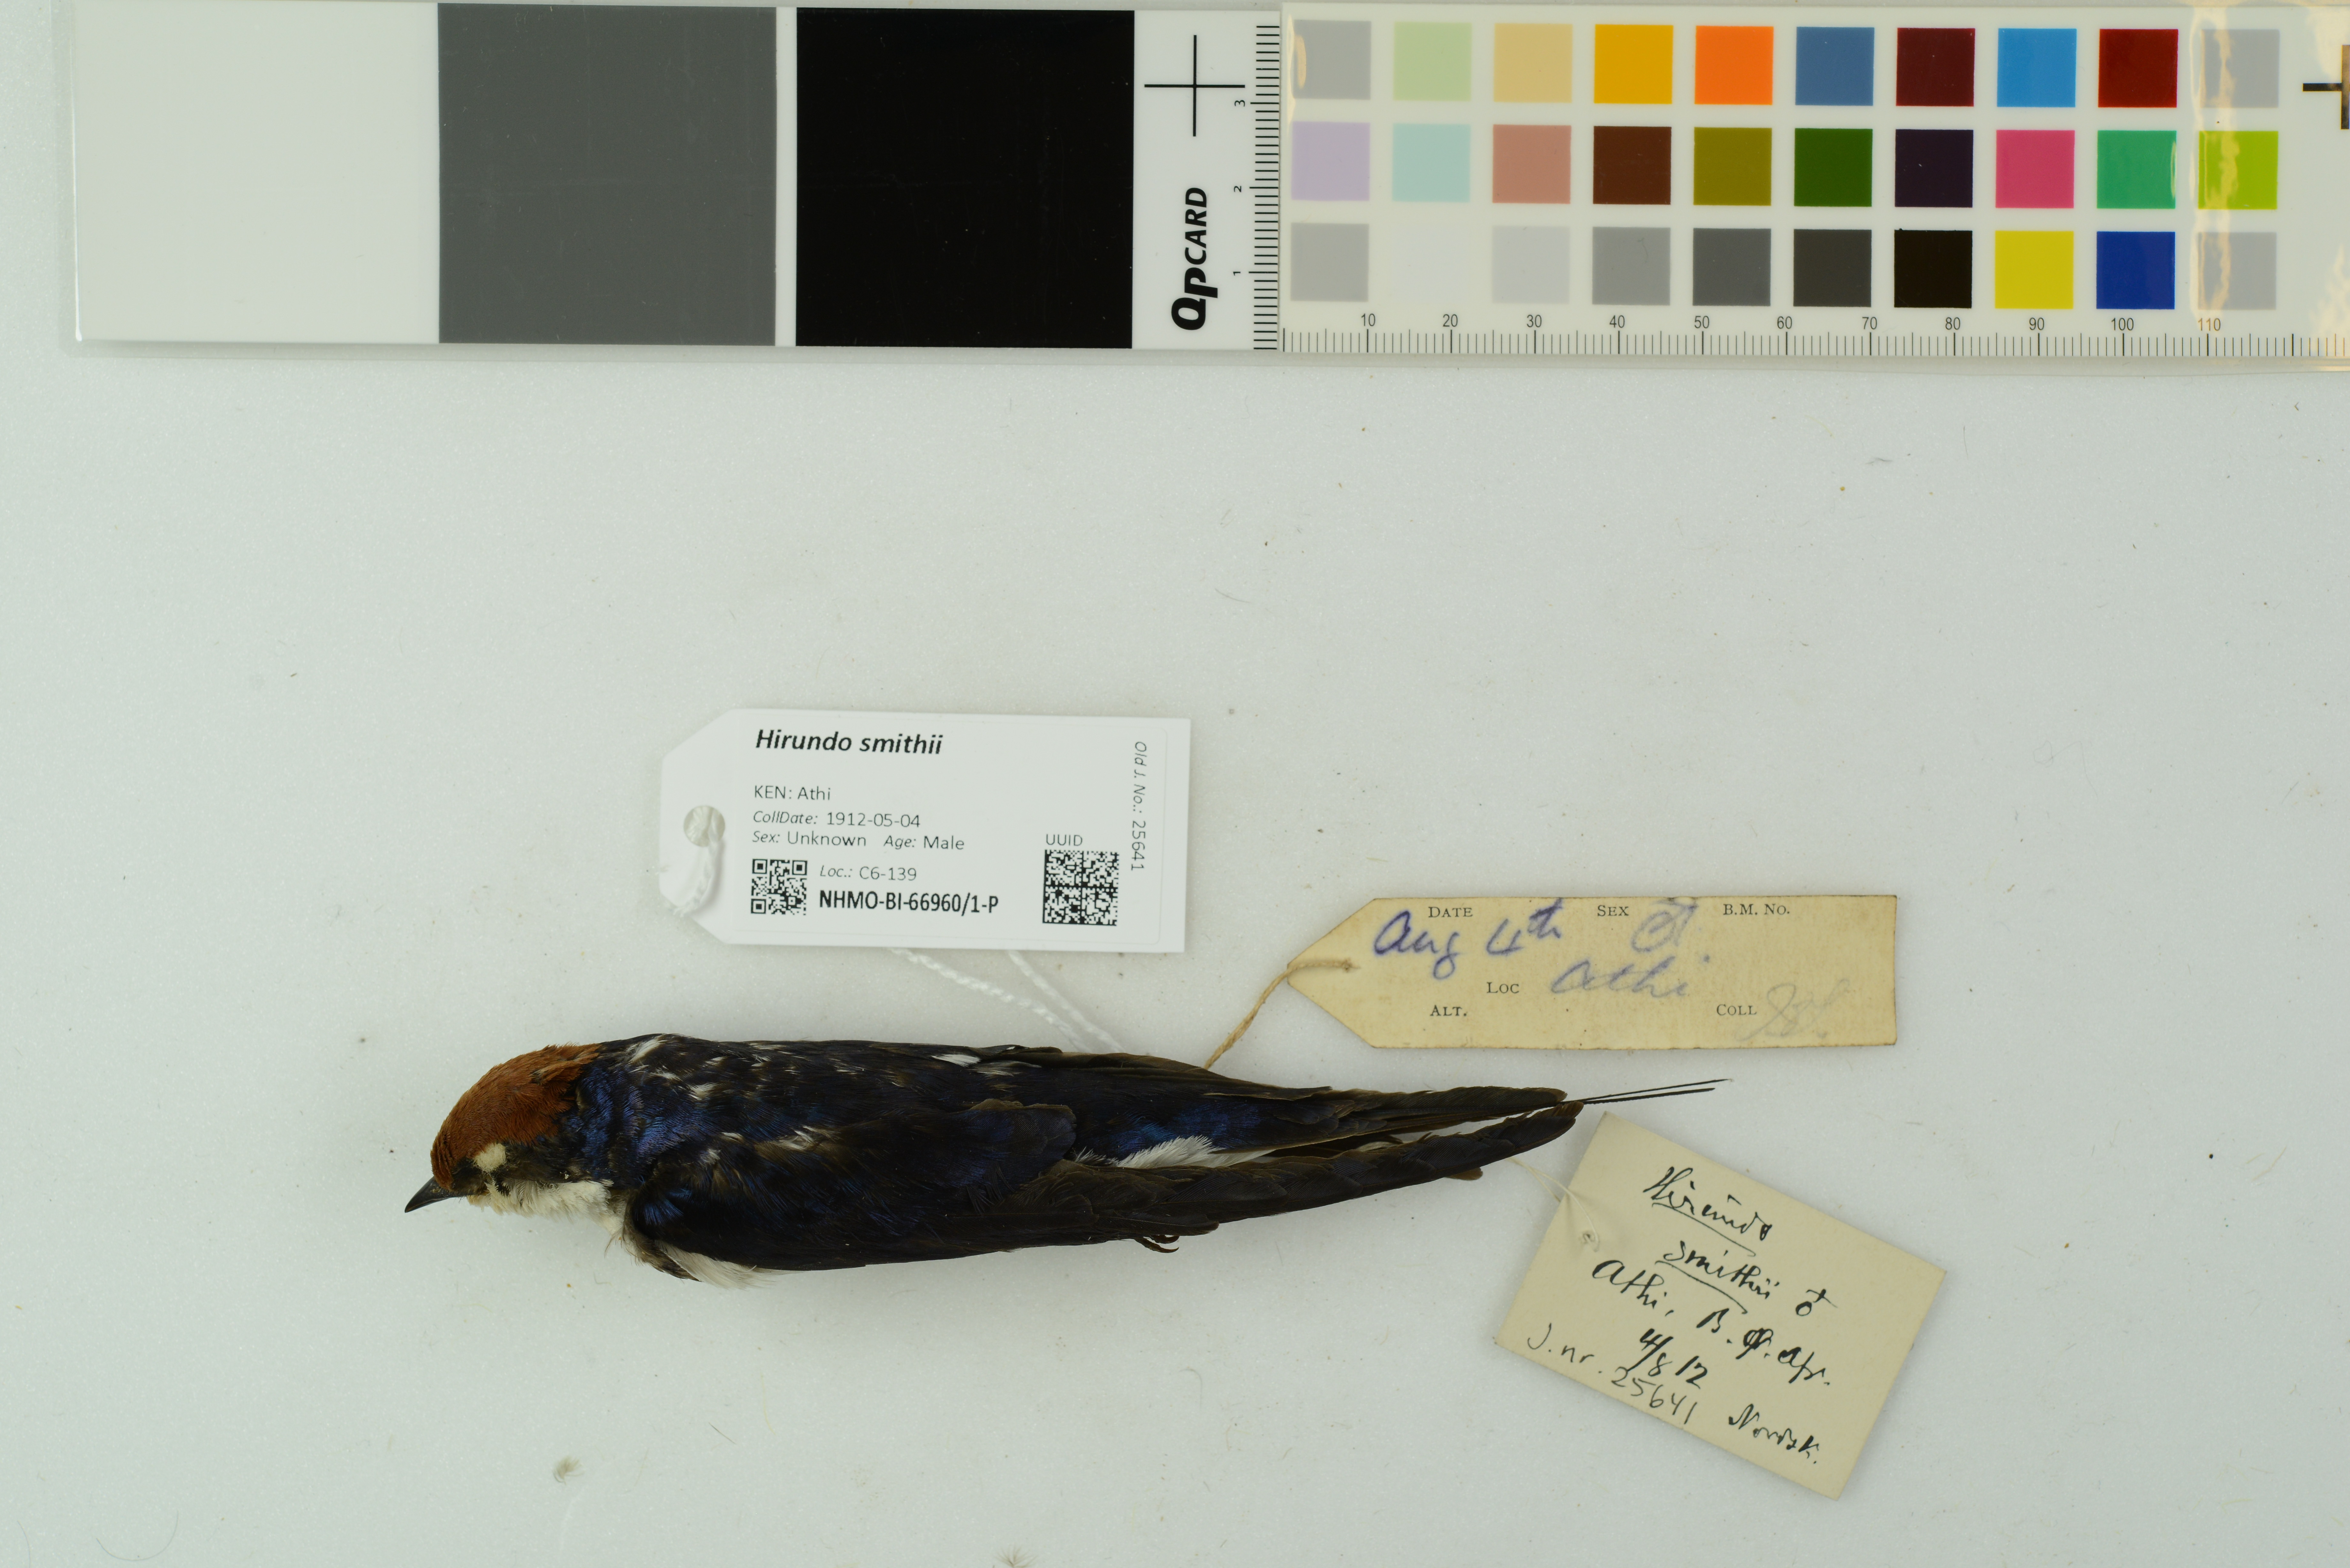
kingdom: Animalia
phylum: Chordata
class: Aves
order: Passeriformes
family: Hirundinidae
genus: Hirundo
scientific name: Hirundo smithii
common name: Wire-tailed swallow
